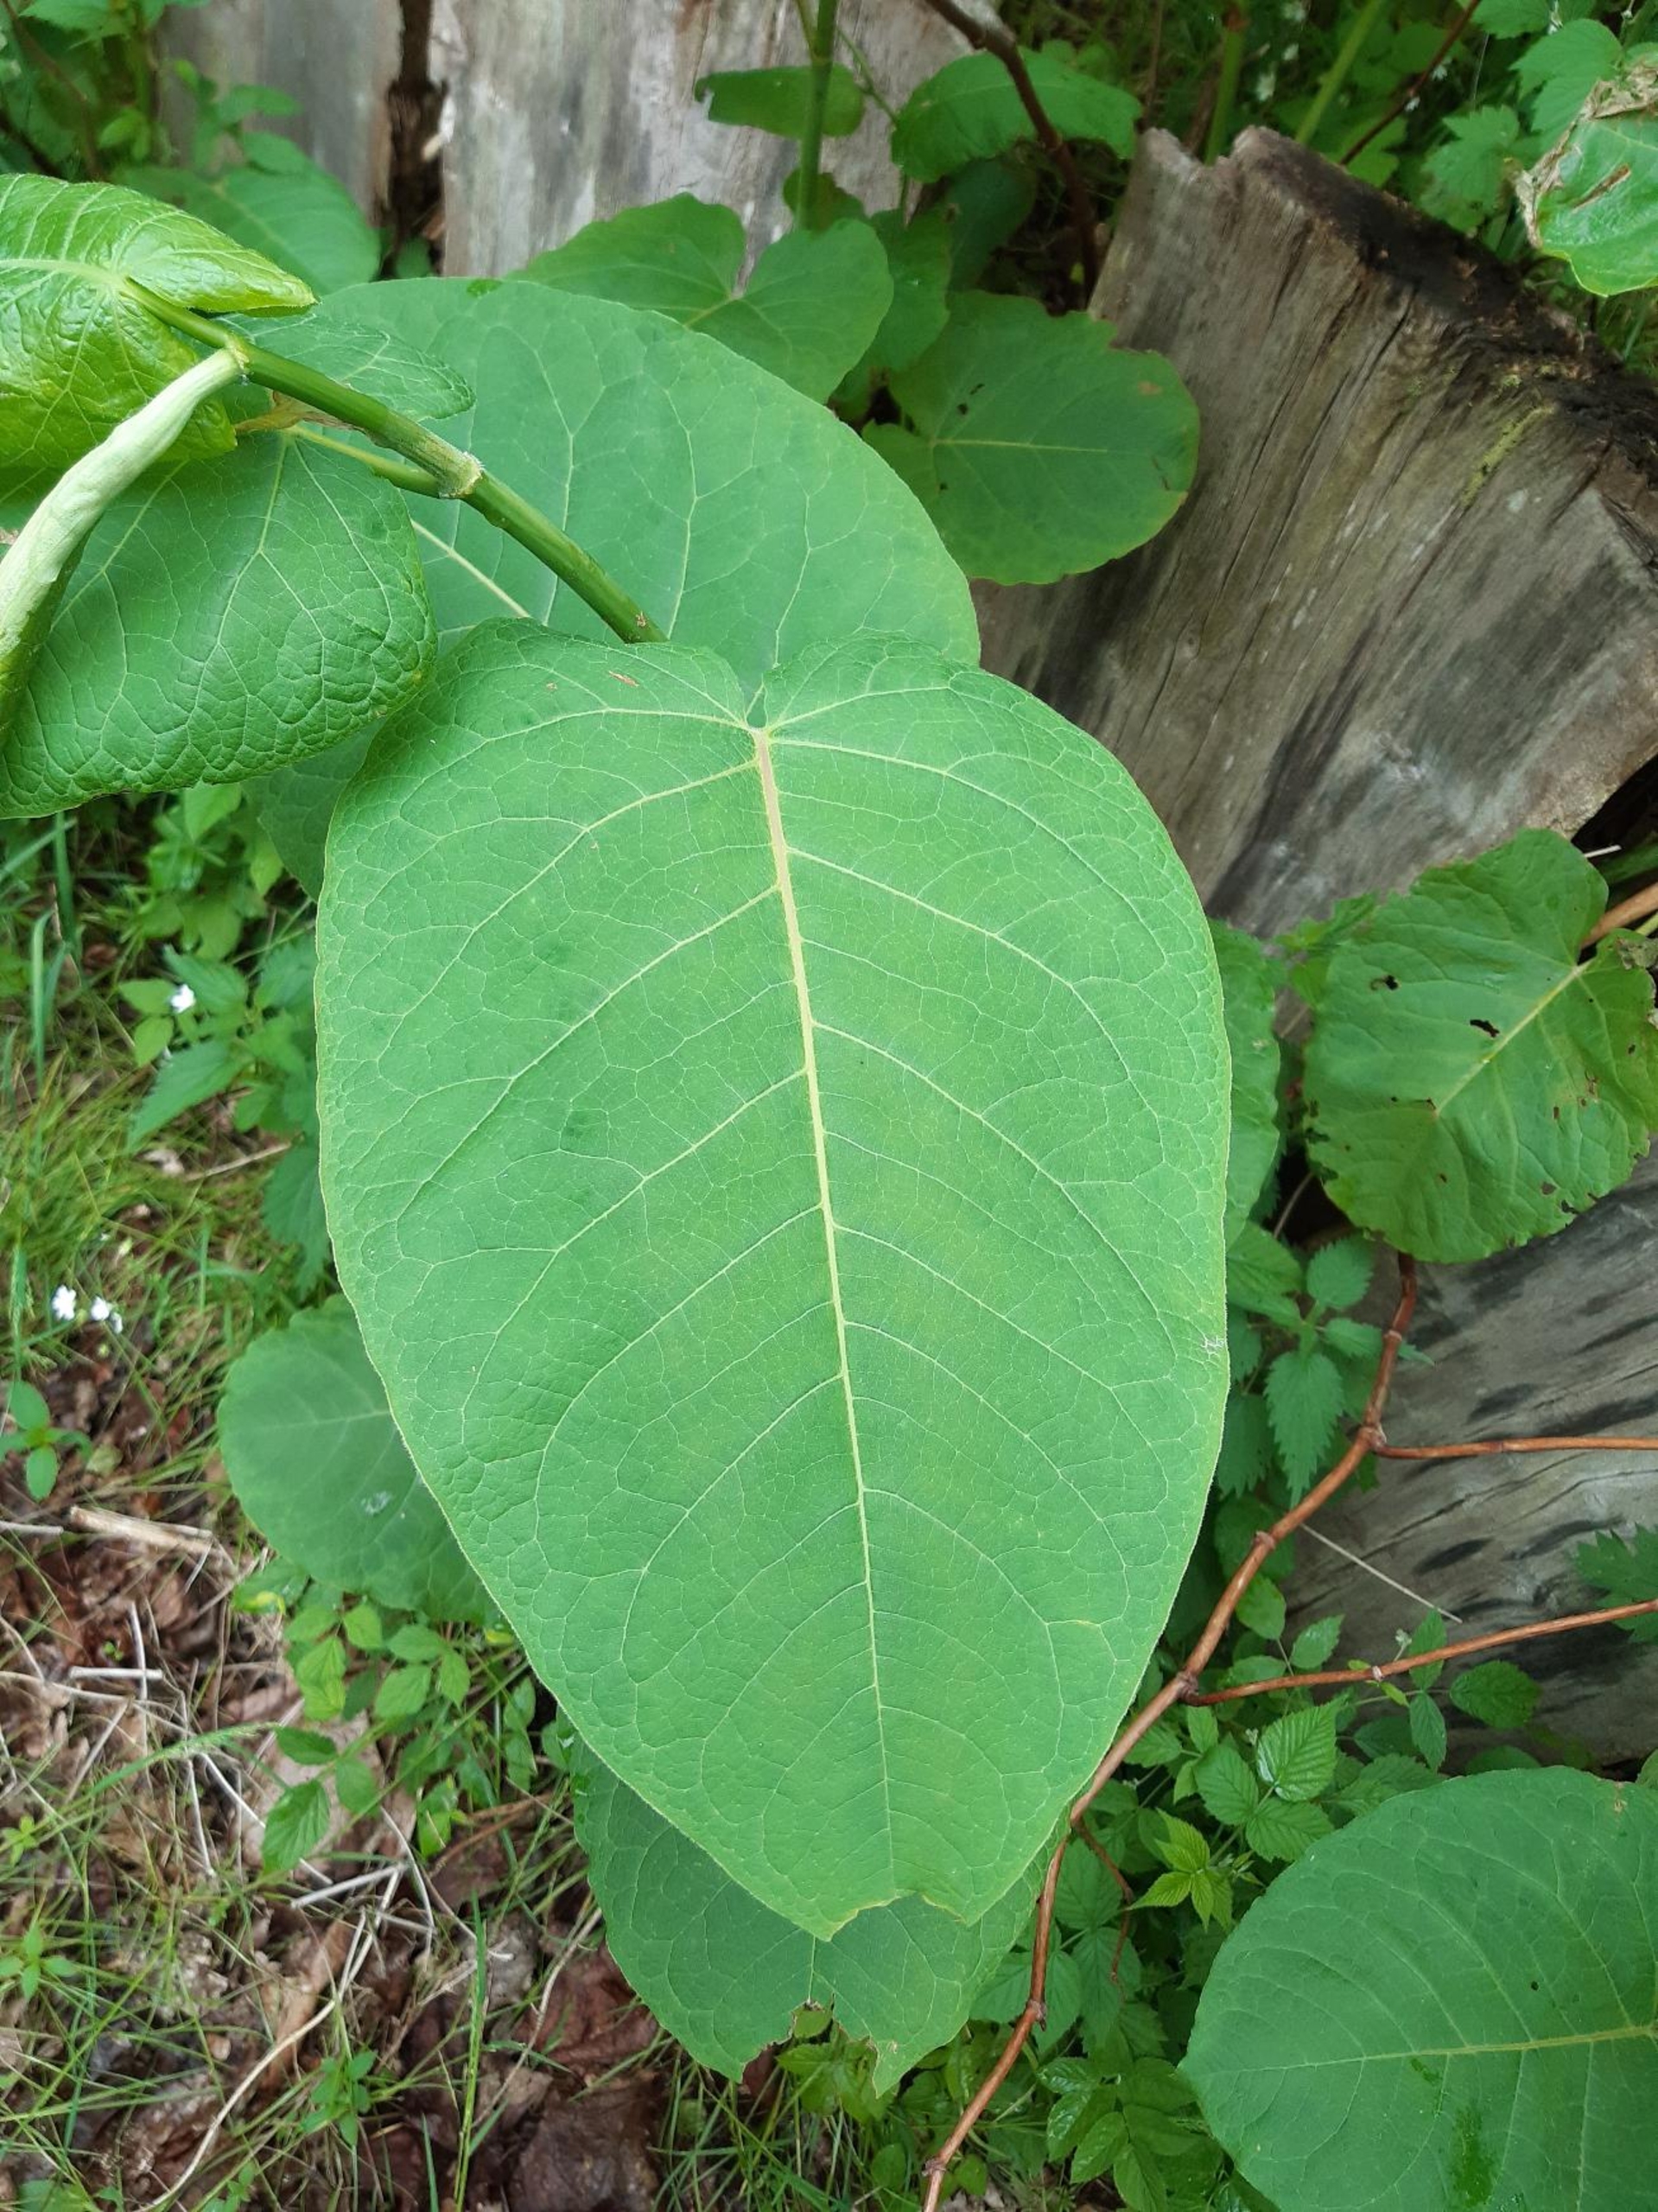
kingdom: Plantae
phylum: Tracheophyta
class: Magnoliopsida
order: Caryophyllales
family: Polygonaceae
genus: Reynoutria
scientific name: Reynoutria sachalinensis
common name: Kæmpe-pileurt
